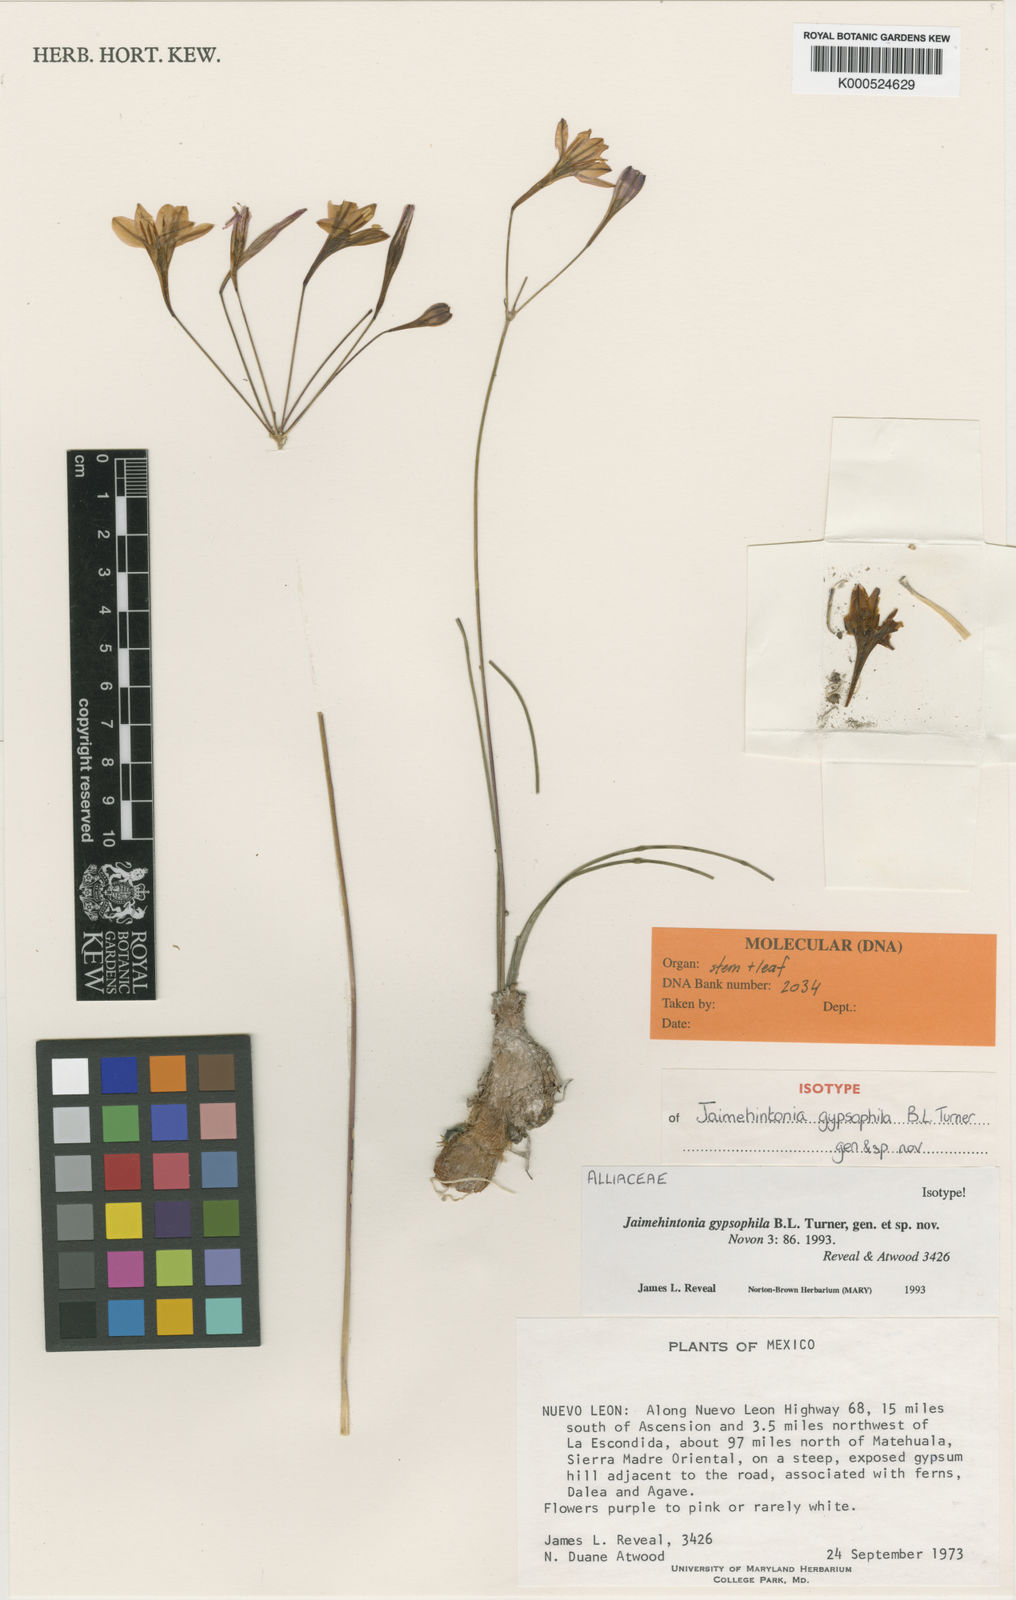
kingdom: Plantae
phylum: Tracheophyta
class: Liliopsida
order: Asparagales
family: Asparagaceae
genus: Jaimehintonia
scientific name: Jaimehintonia gypsophila
